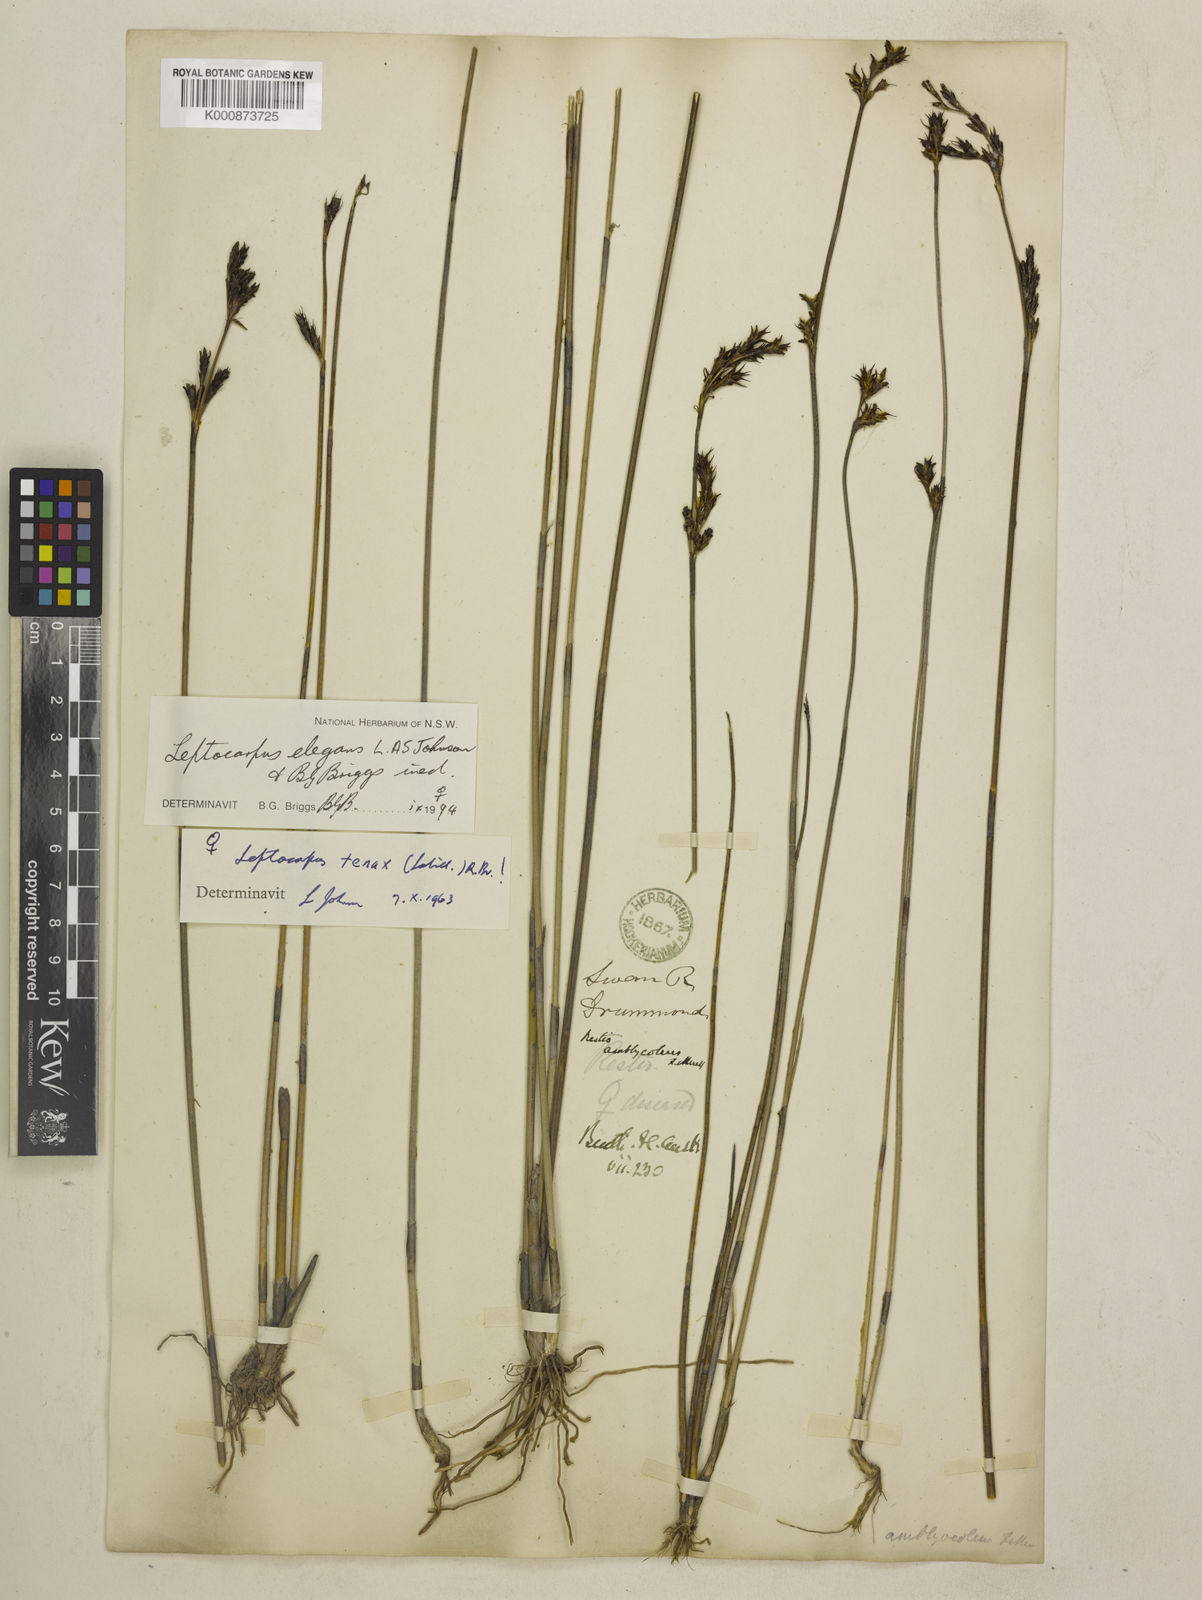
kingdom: Plantae
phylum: Tracheophyta
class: Liliopsida
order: Poales
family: Restionaceae
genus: Chordifex
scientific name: Chordifex amblycoleus
